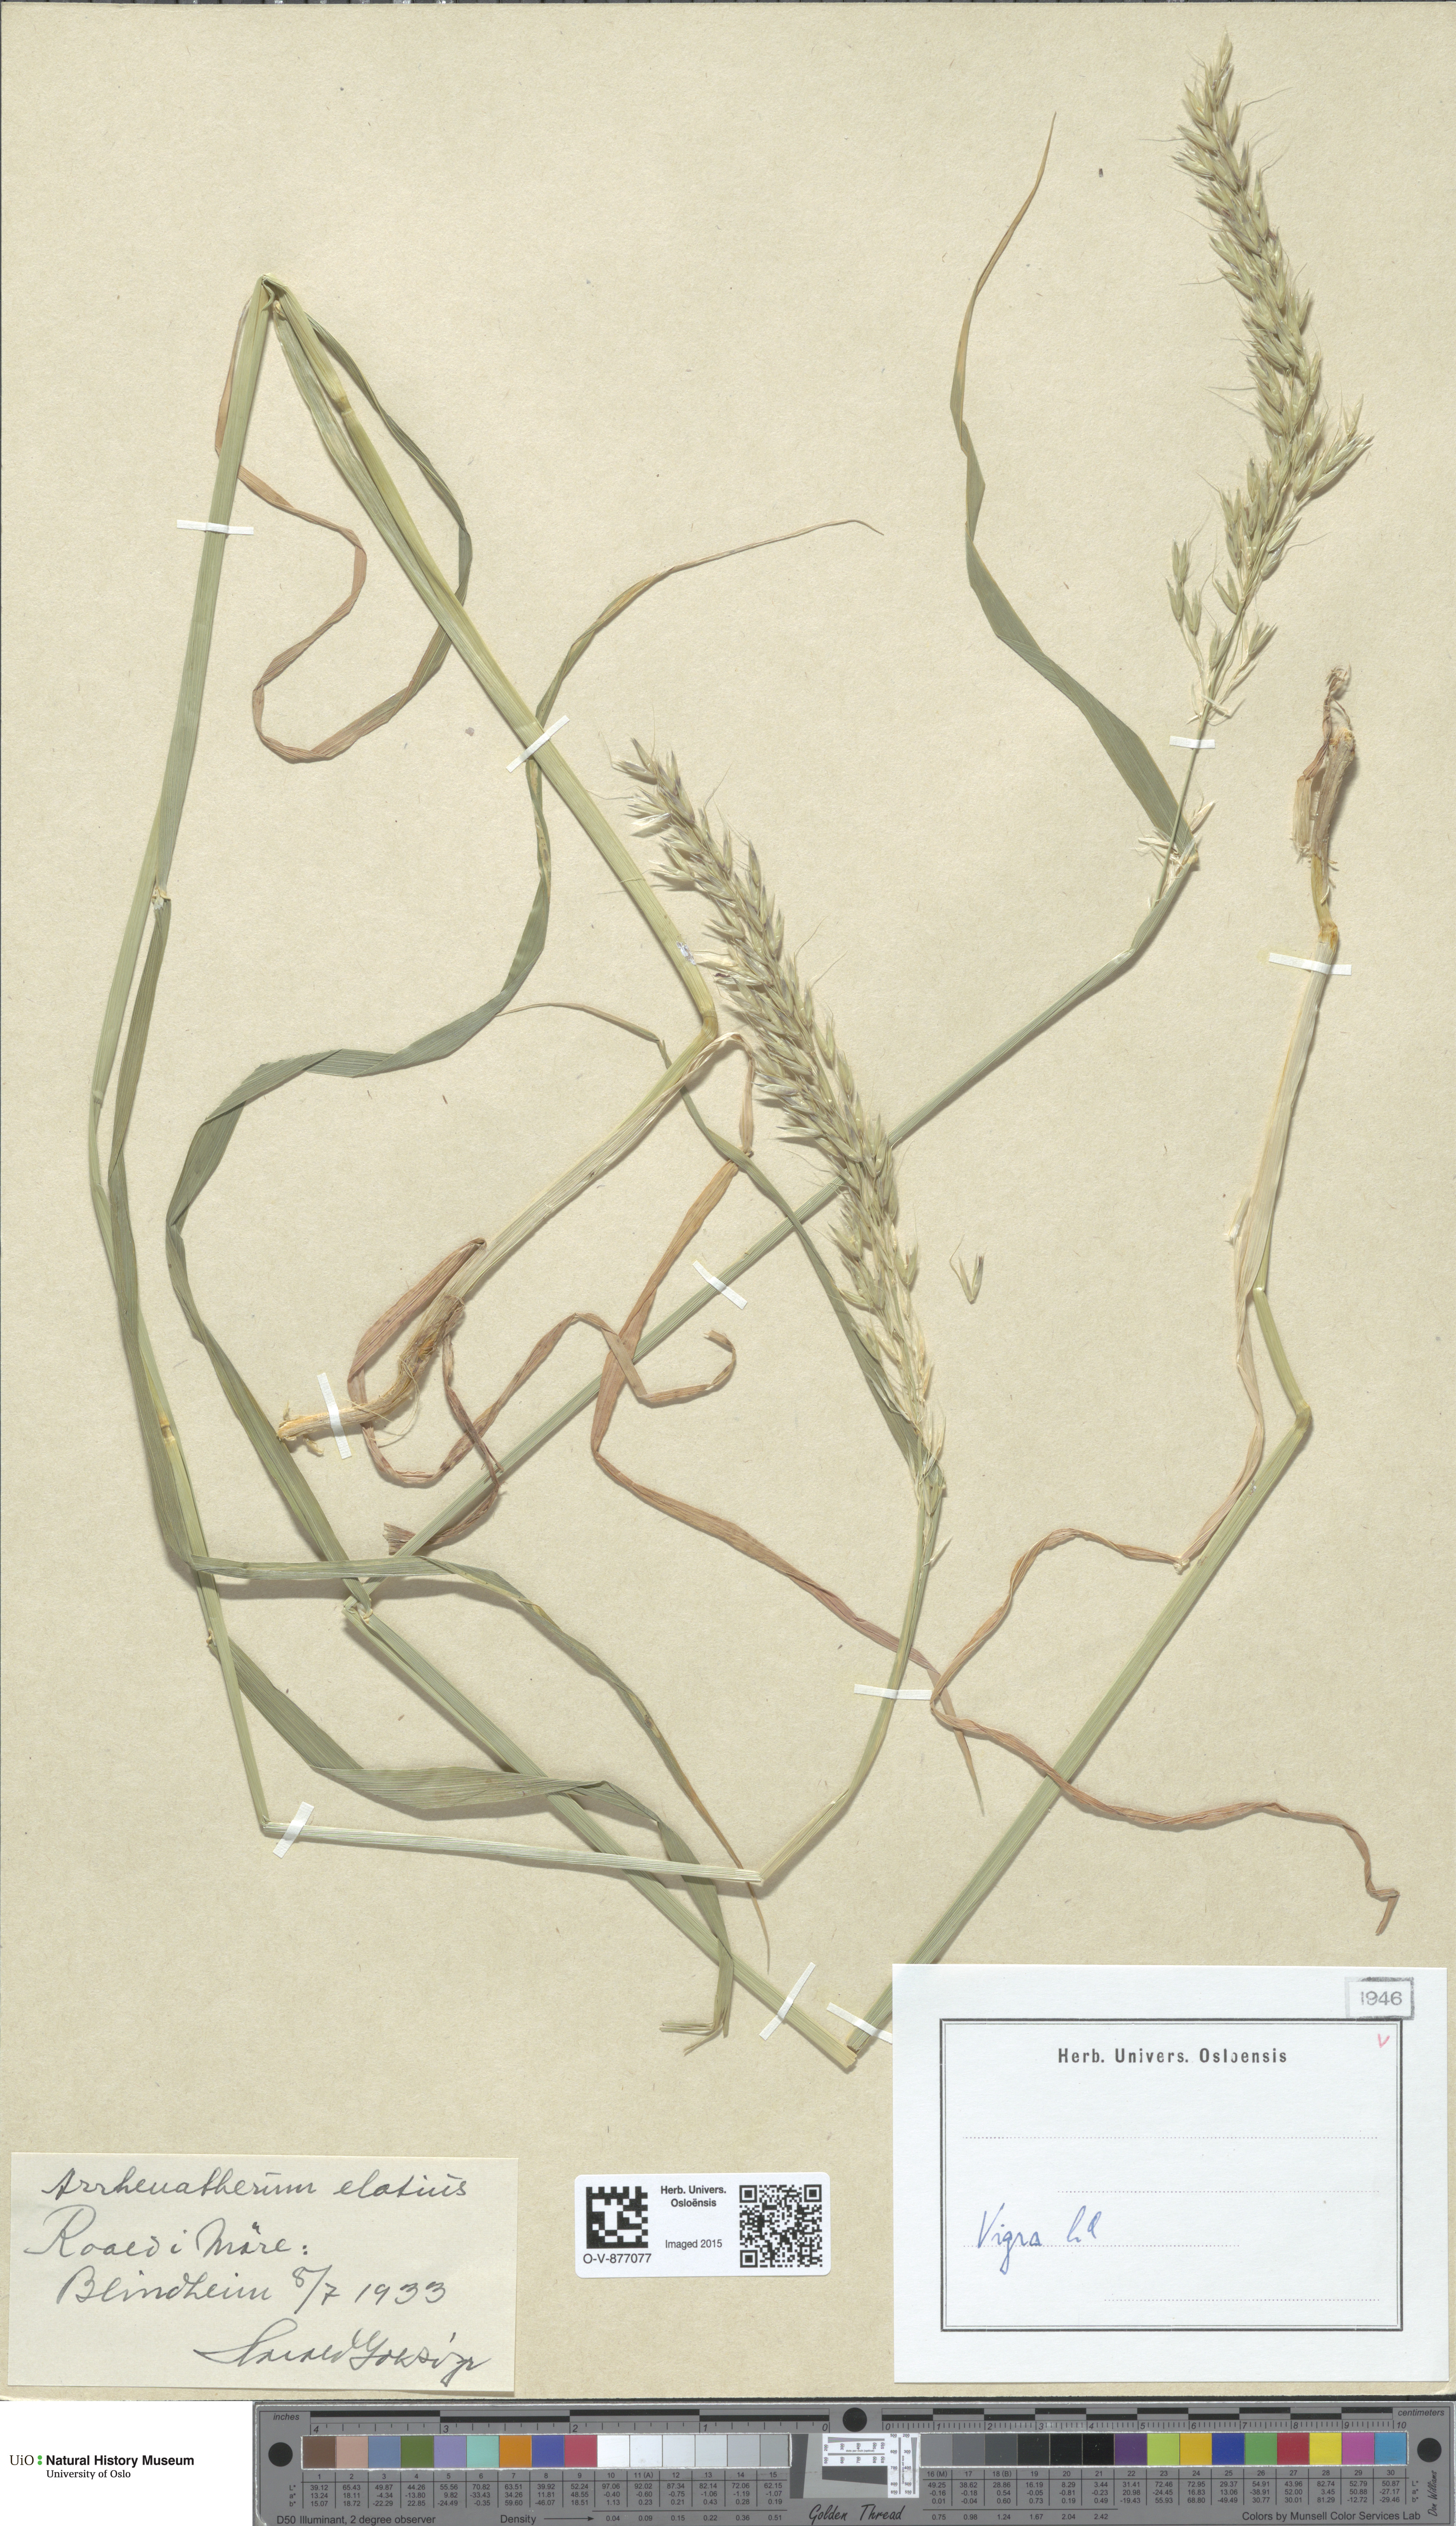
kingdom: Plantae
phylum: Tracheophyta
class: Liliopsida
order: Poales
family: Poaceae
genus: Arrhenatherum
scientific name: Arrhenatherum elatius
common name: Tall oatgrass
